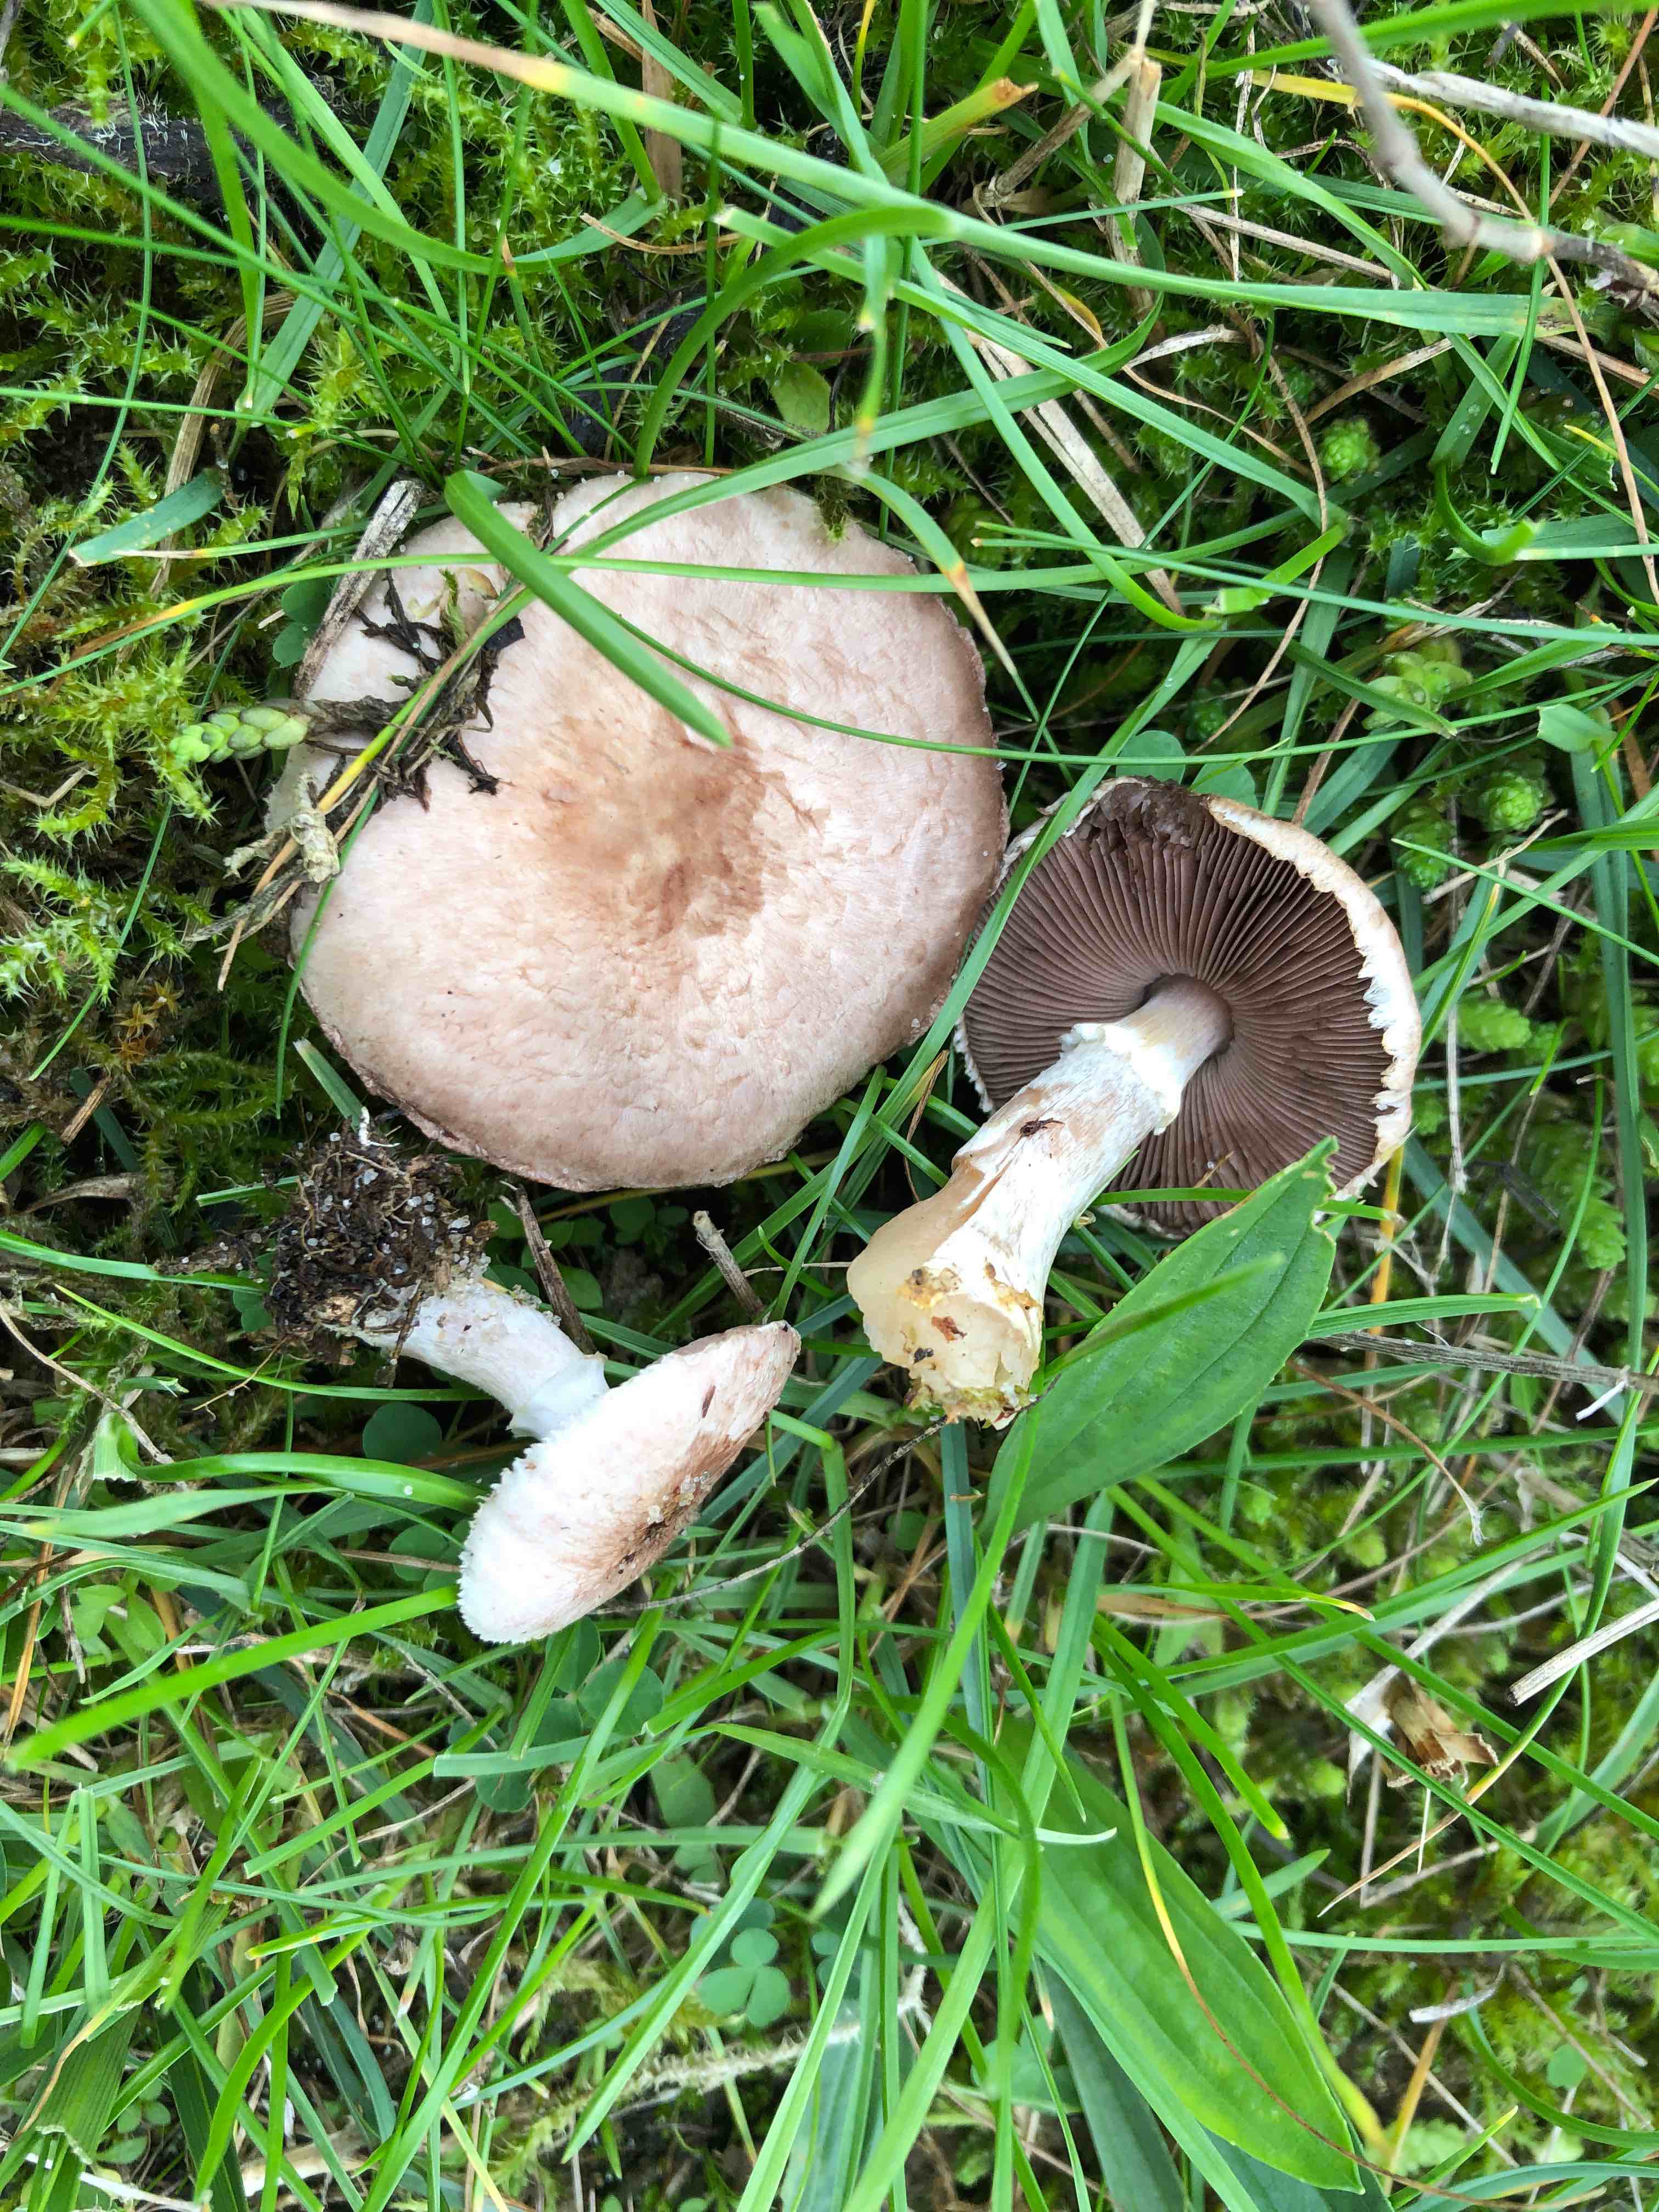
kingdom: Fungi
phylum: Basidiomycota
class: Agaricomycetes
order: Agaricales
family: Agaricaceae
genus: Agaricus
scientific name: Agaricus cupreobrunneus
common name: kobberbrun champignon
